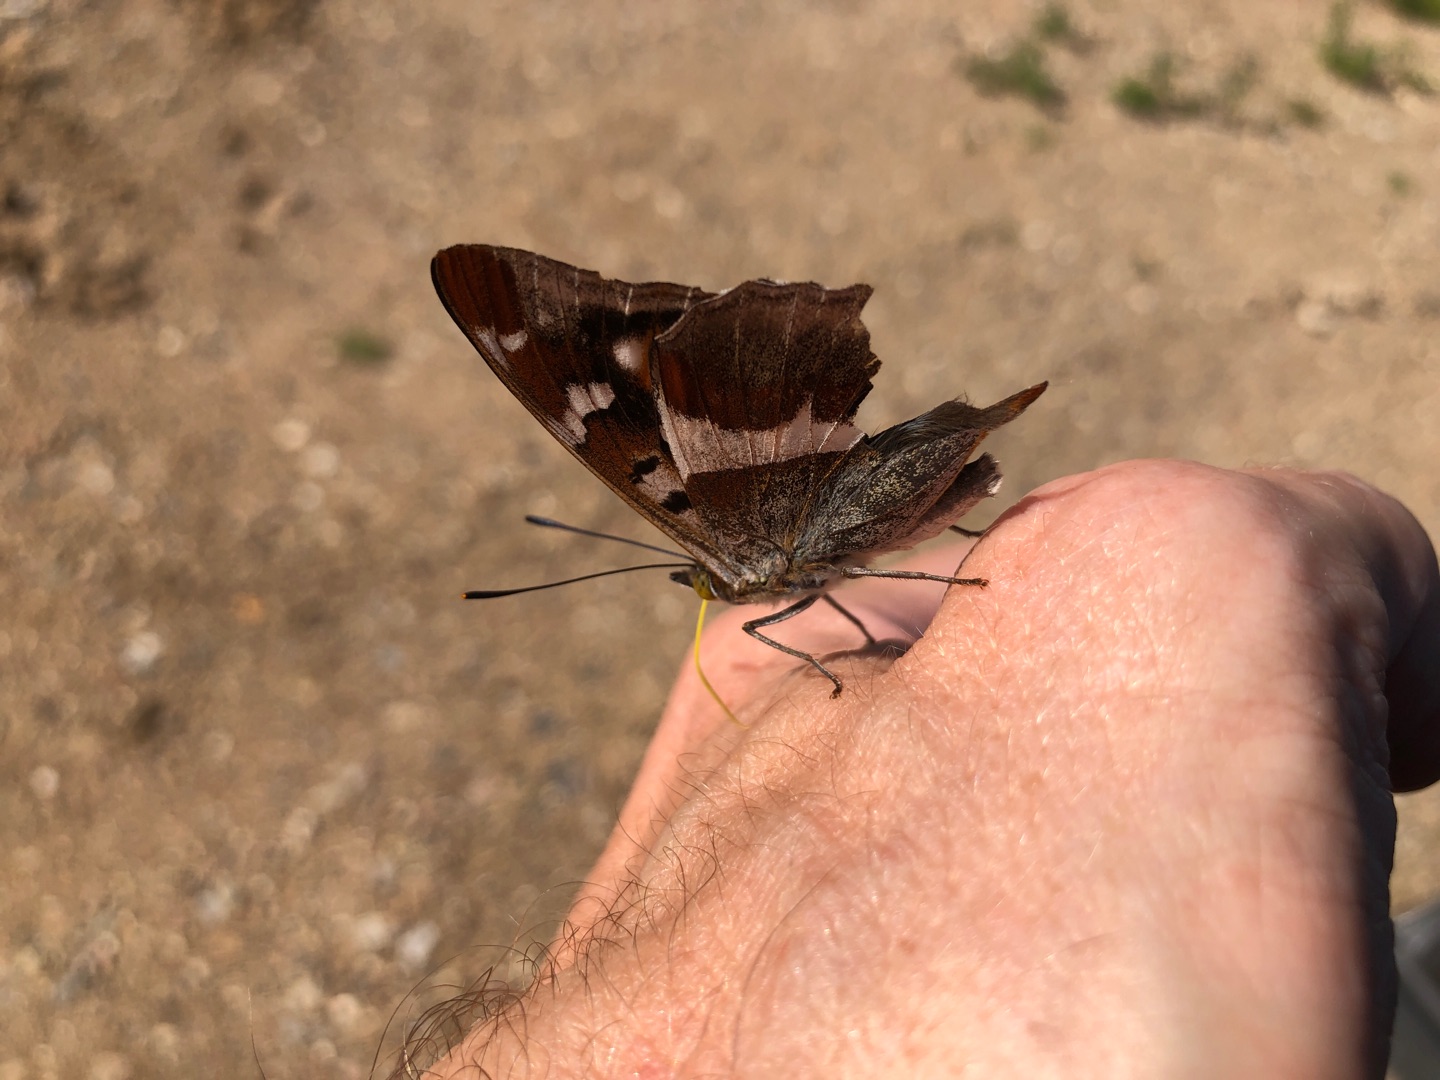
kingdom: Animalia
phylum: Arthropoda
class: Insecta
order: Lepidoptera
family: Nymphalidae
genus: Apatura
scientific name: Apatura iris
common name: Iris
